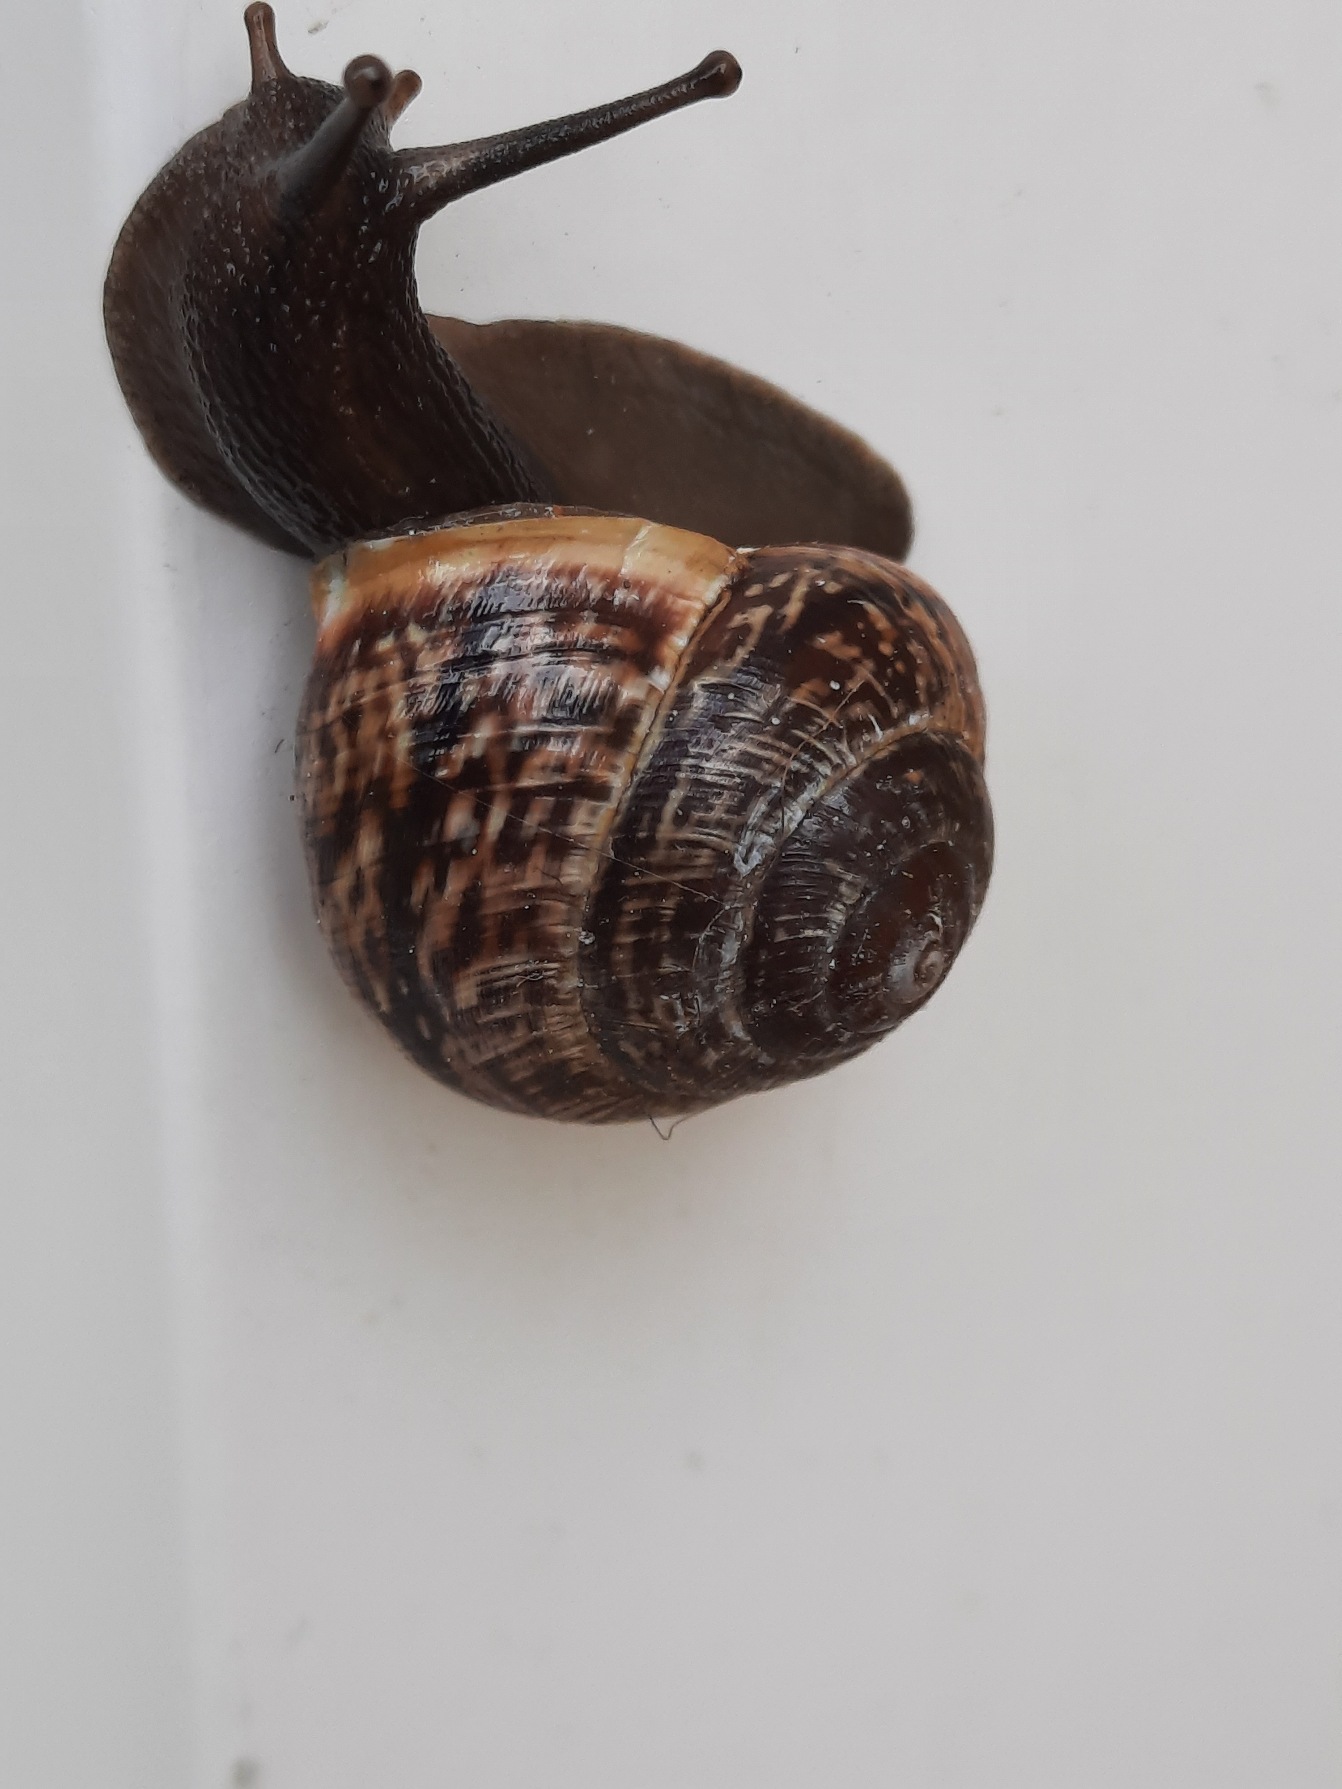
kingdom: Animalia
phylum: Mollusca
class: Gastropoda
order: Stylommatophora
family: Helicidae
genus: Arianta
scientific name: Arianta arbustorum
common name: Kratsnegl
